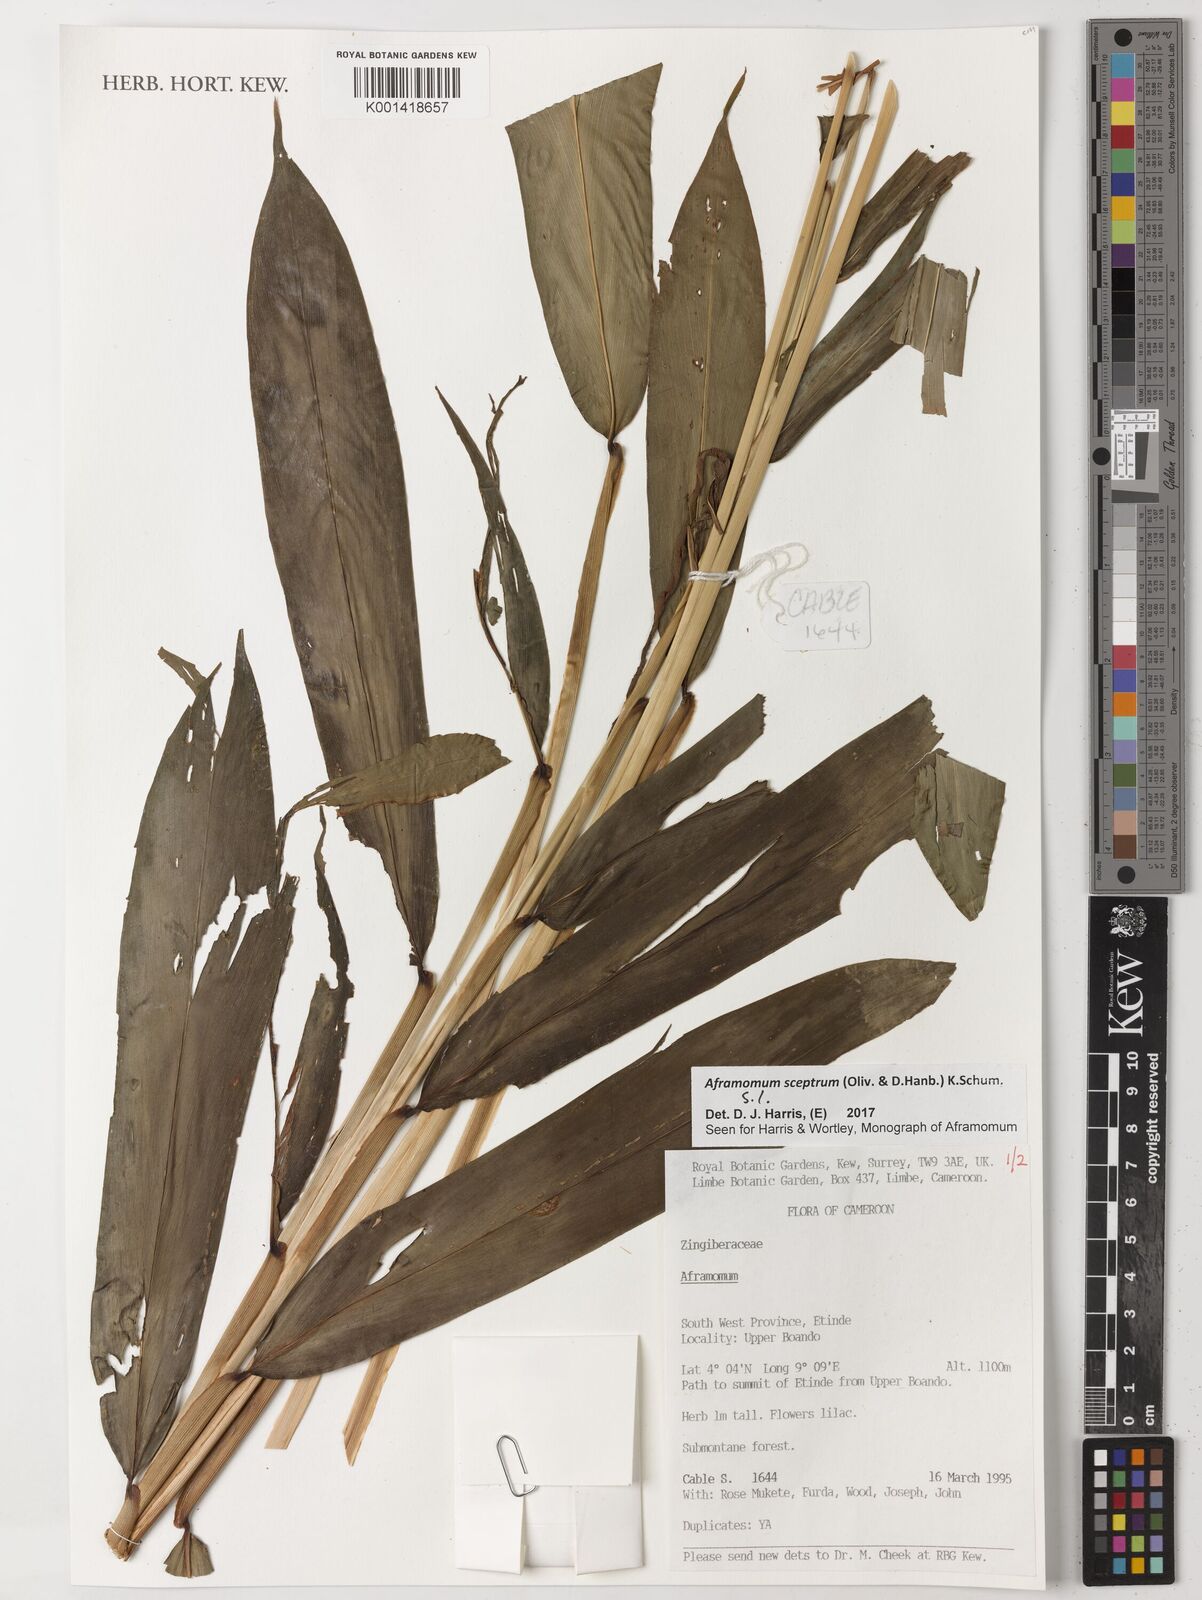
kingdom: Plantae
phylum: Tracheophyta
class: Liliopsida
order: Zingiberales
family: Zingiberaceae
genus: Aframomum
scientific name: Aframomum cereum
